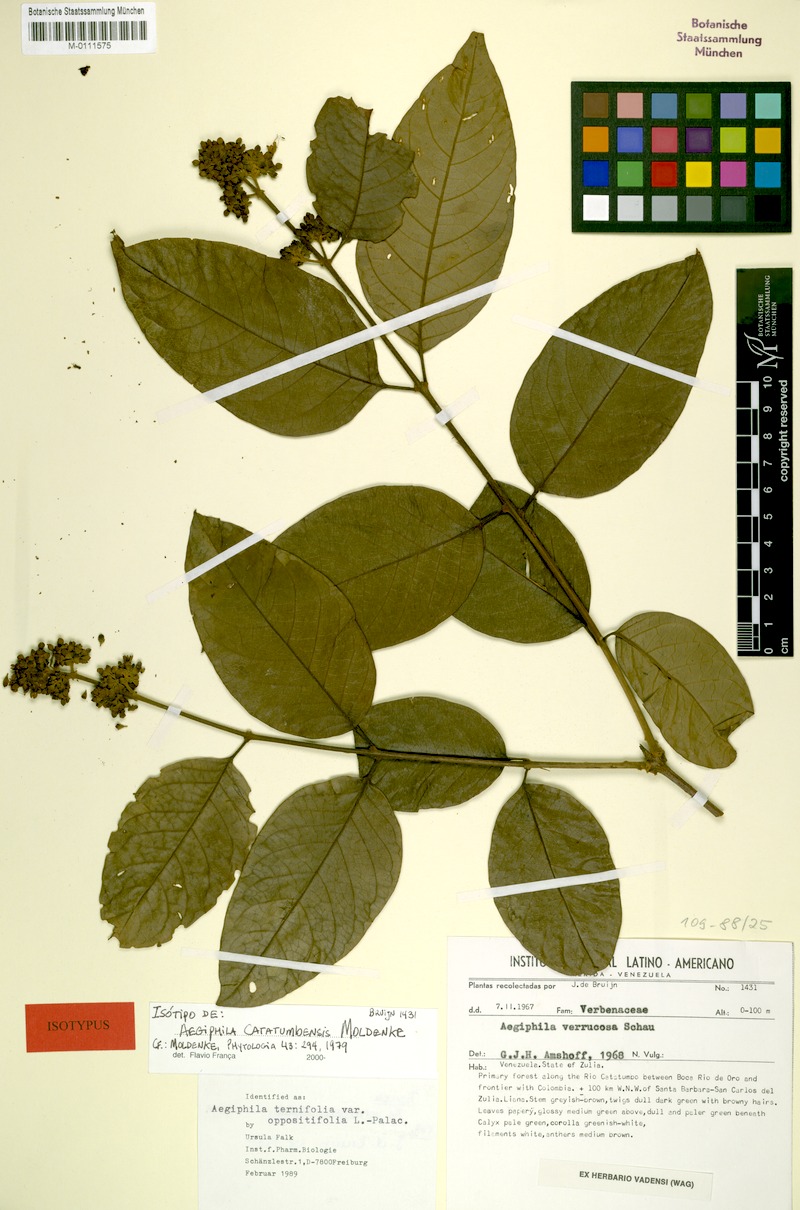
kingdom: Plantae
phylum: Tracheophyta
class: Magnoliopsida
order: Lamiales
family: Lamiaceae
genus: Aegiphila
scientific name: Aegiphila ternifolia
